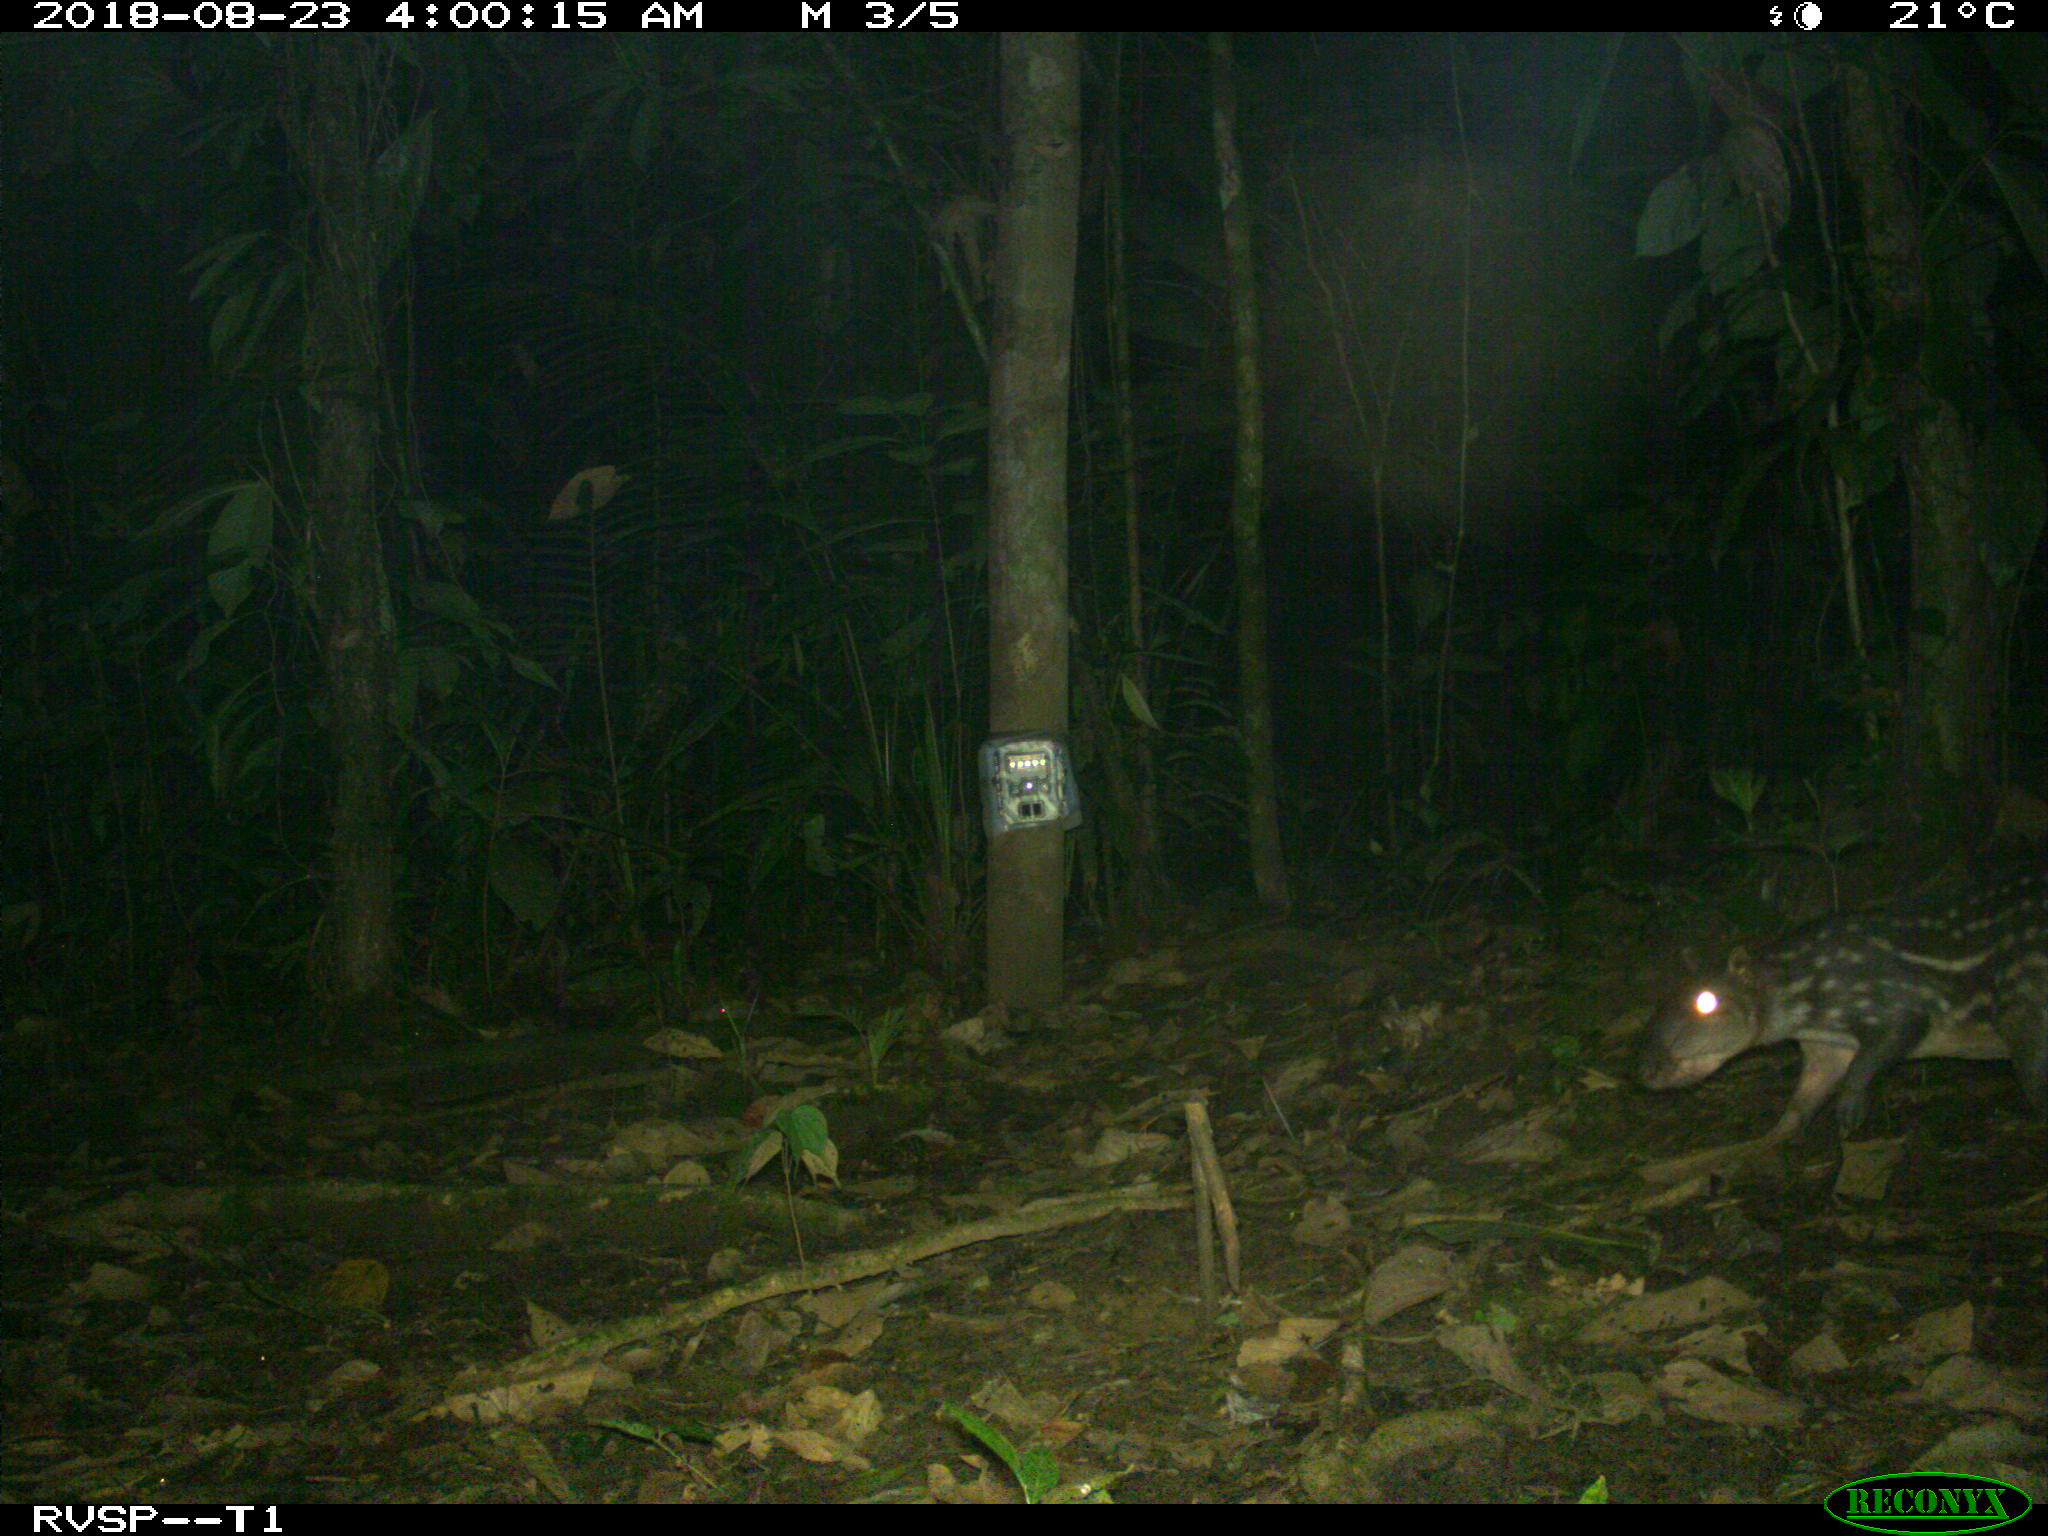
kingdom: Animalia
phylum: Chordata
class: Mammalia
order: Rodentia
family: Cuniculidae
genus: Cuniculus
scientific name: Cuniculus paca
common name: Lowland paca
